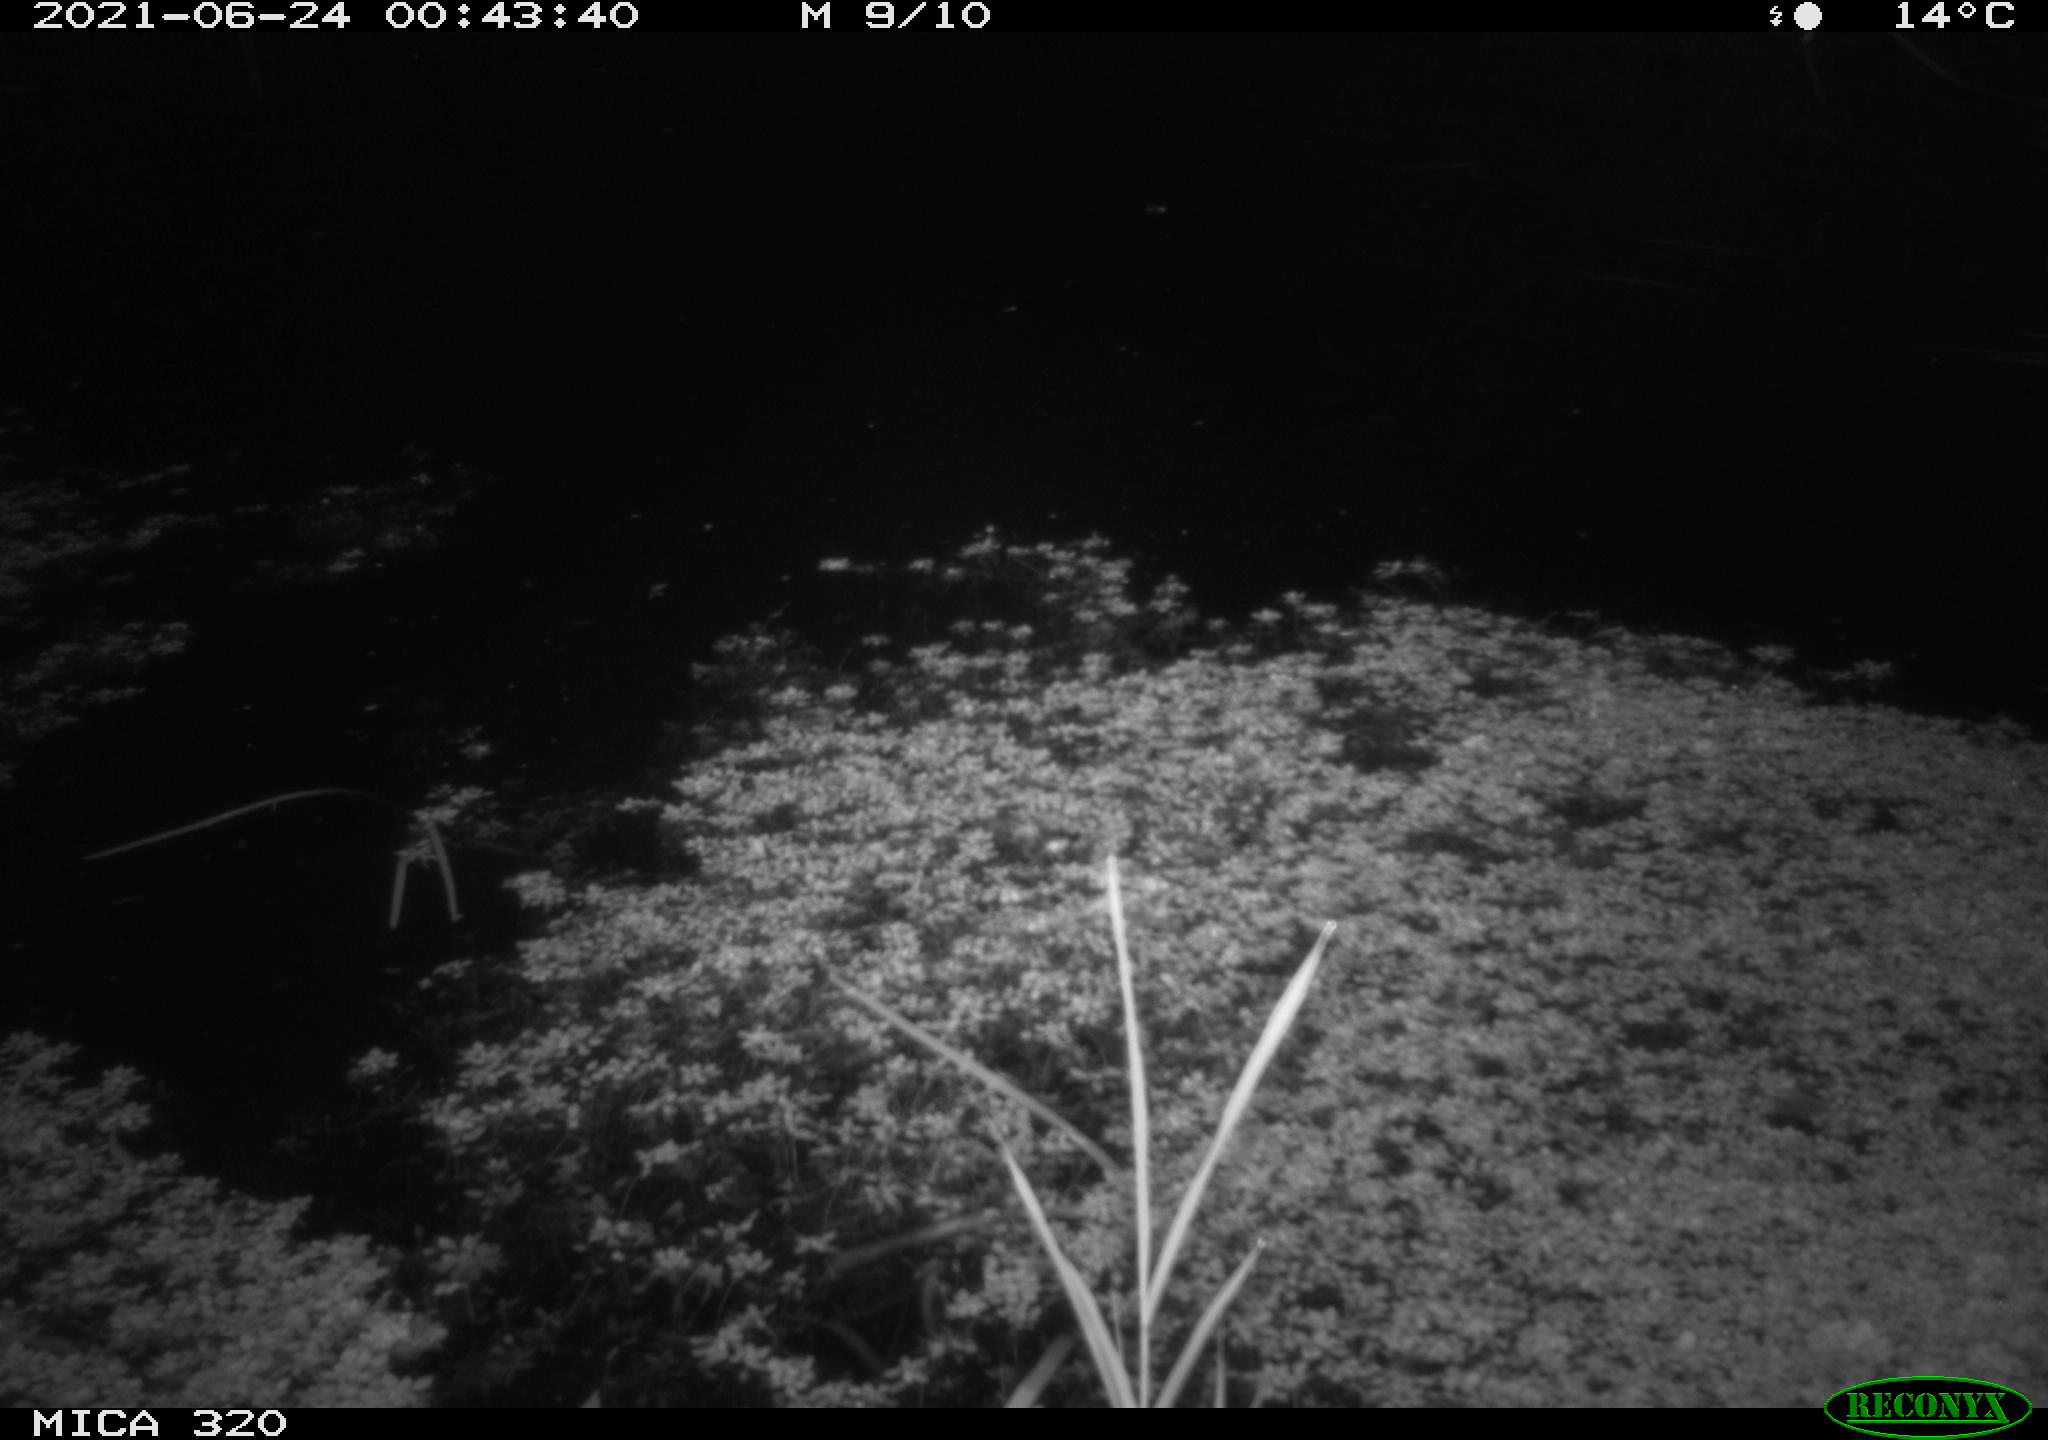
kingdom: Animalia
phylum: Chordata
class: Mammalia
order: Rodentia
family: Muridae
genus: Rattus
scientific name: Rattus norvegicus
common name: Brown rat
